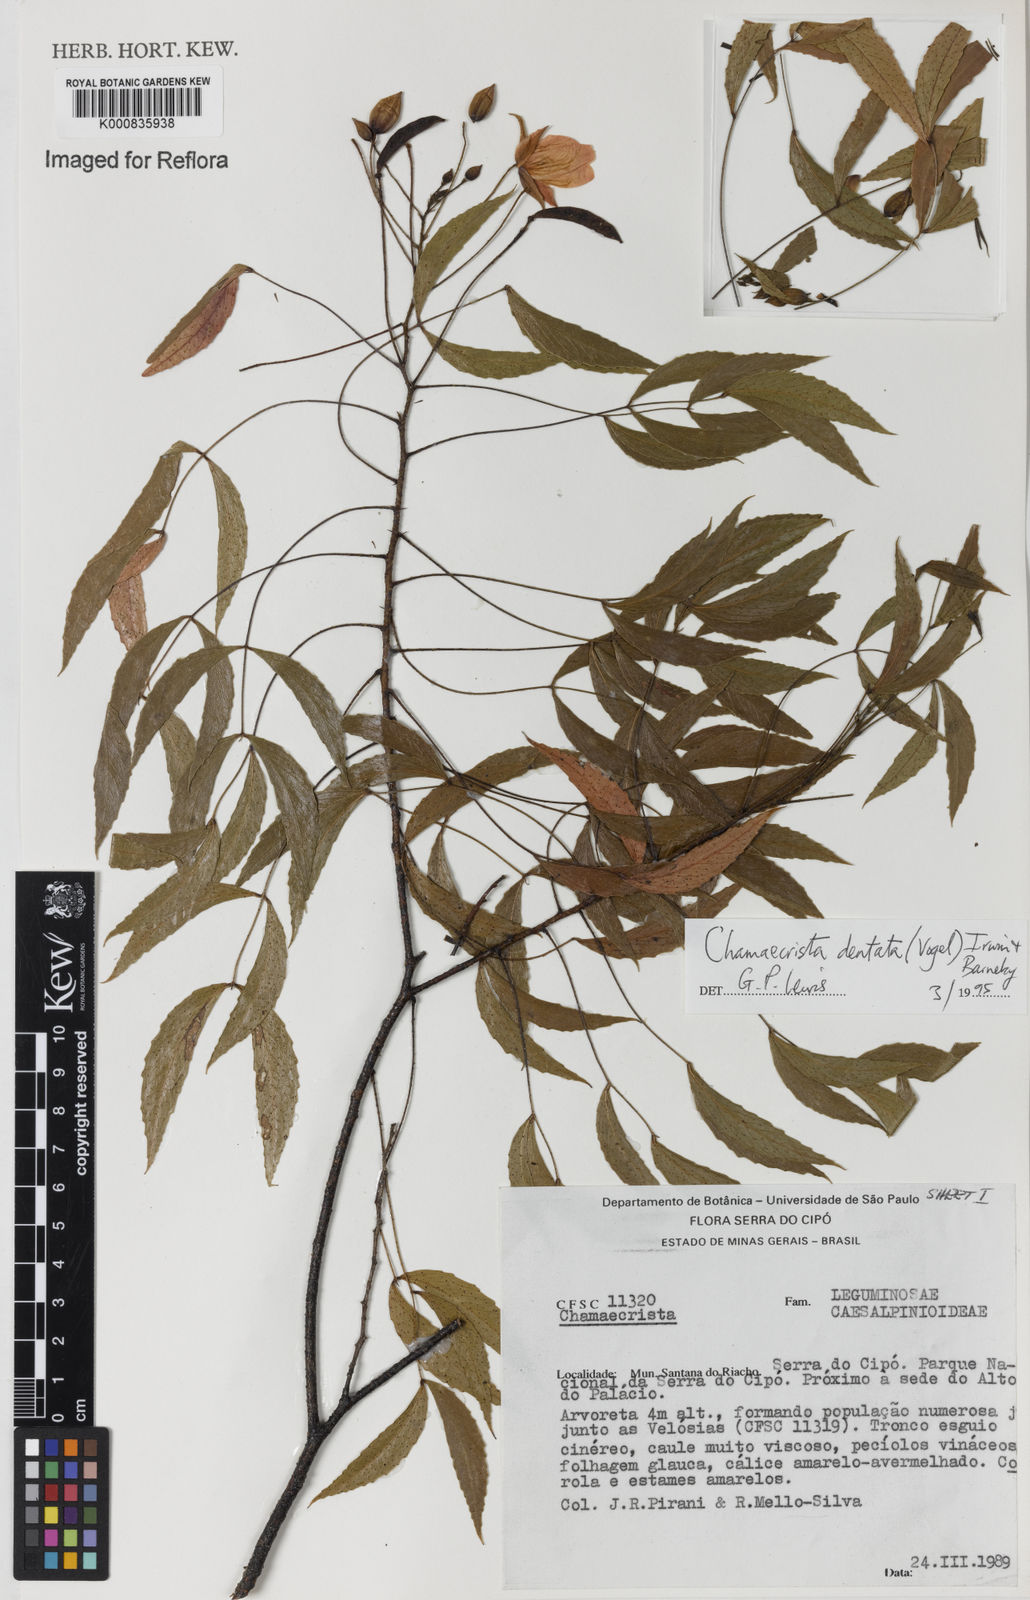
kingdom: Plantae
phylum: Tracheophyta
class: Magnoliopsida
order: Fabales
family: Fabaceae
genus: Chamaecrista
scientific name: Chamaecrista dentata
